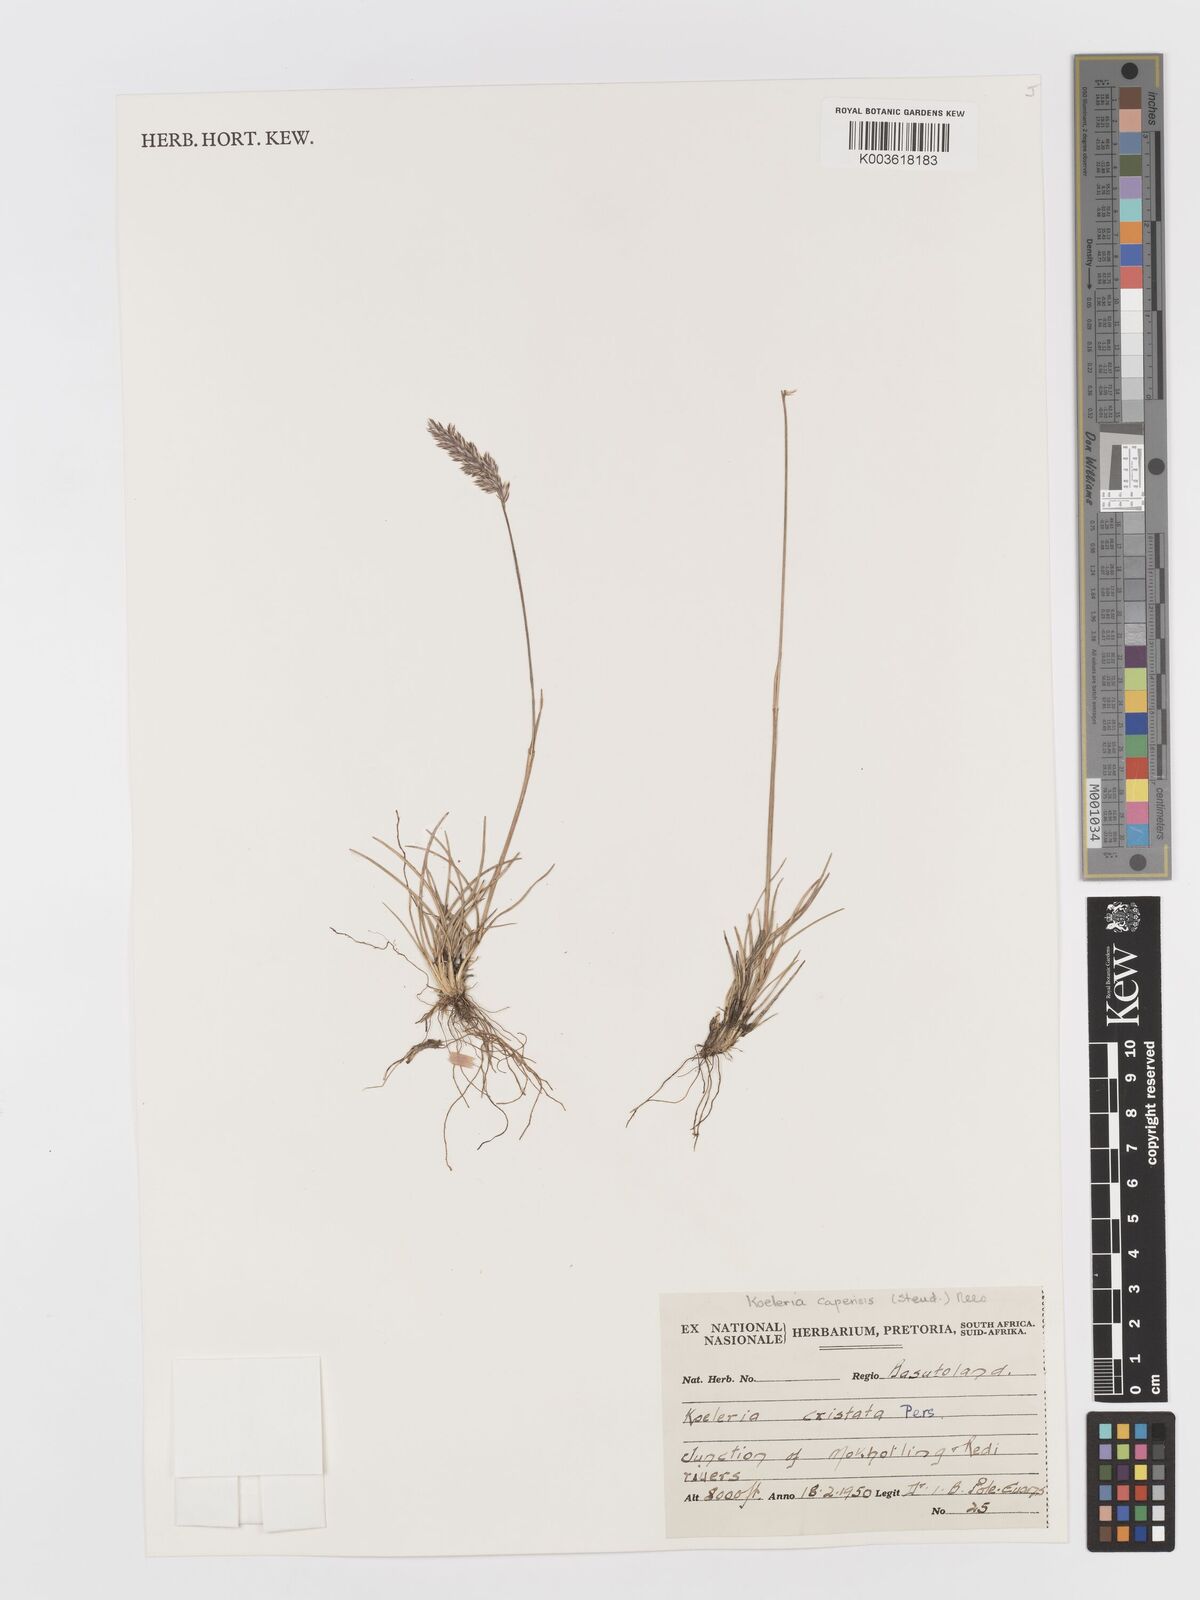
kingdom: Plantae
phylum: Tracheophyta
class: Liliopsida
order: Poales
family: Poaceae
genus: Koeleria
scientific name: Koeleria capensis
